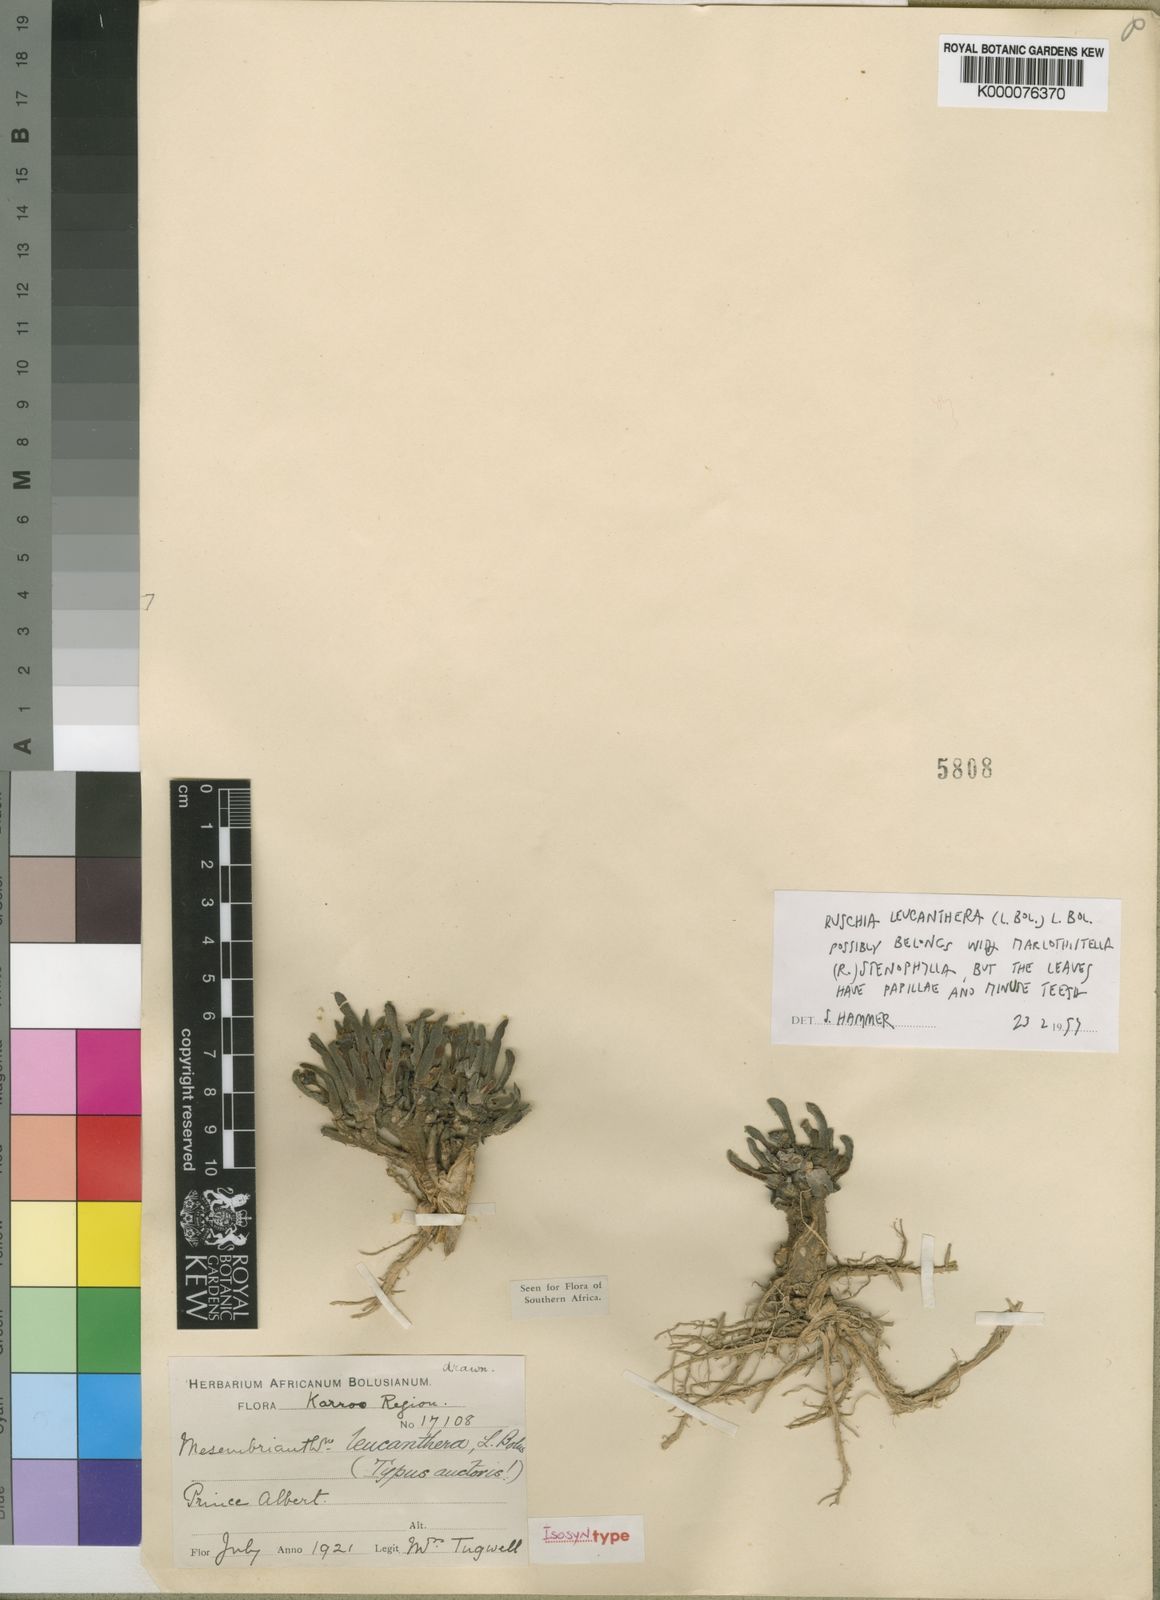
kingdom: Plantae
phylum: Tracheophyta
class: Magnoliopsida
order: Caryophyllales
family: Aizoaceae
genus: Marlothistella
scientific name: Marlothistella
